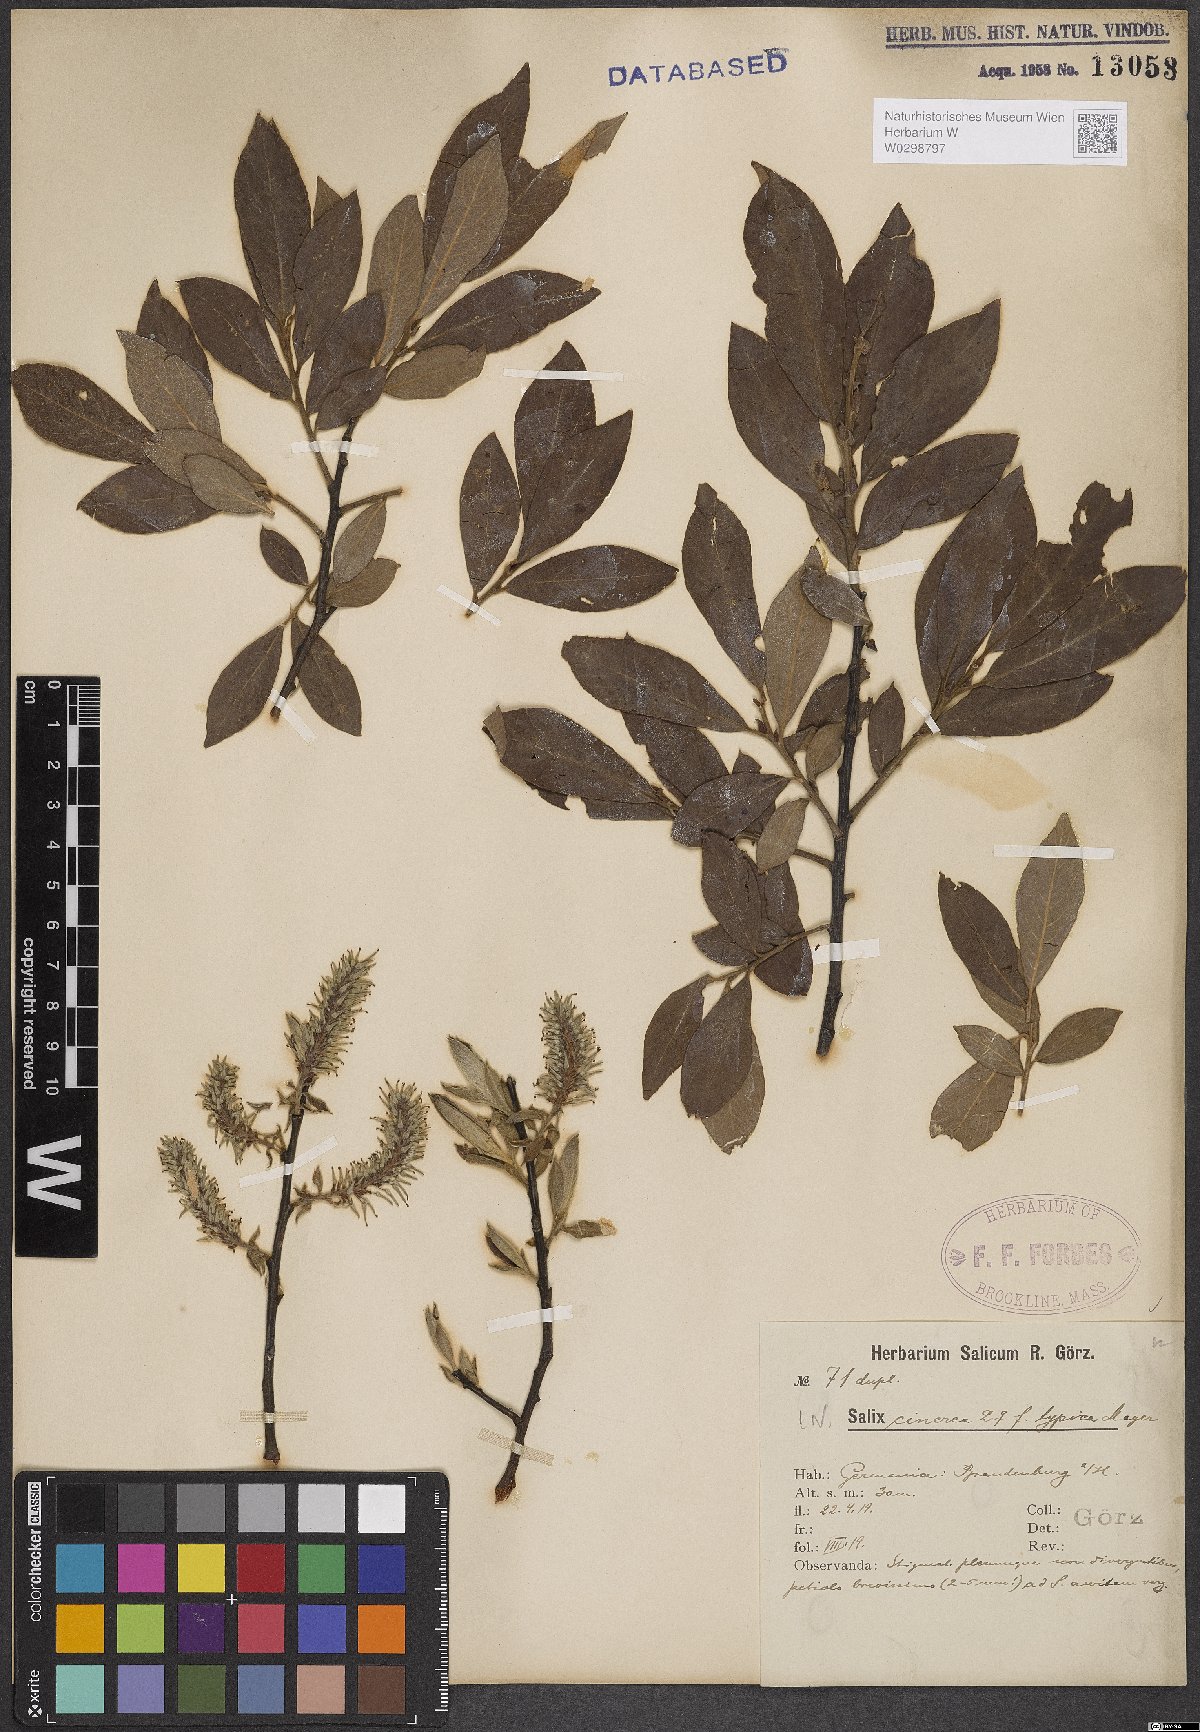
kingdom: Plantae
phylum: Tracheophyta
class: Magnoliopsida
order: Malpighiales
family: Salicaceae
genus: Salix
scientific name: Salix cinerea
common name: Common sallow
